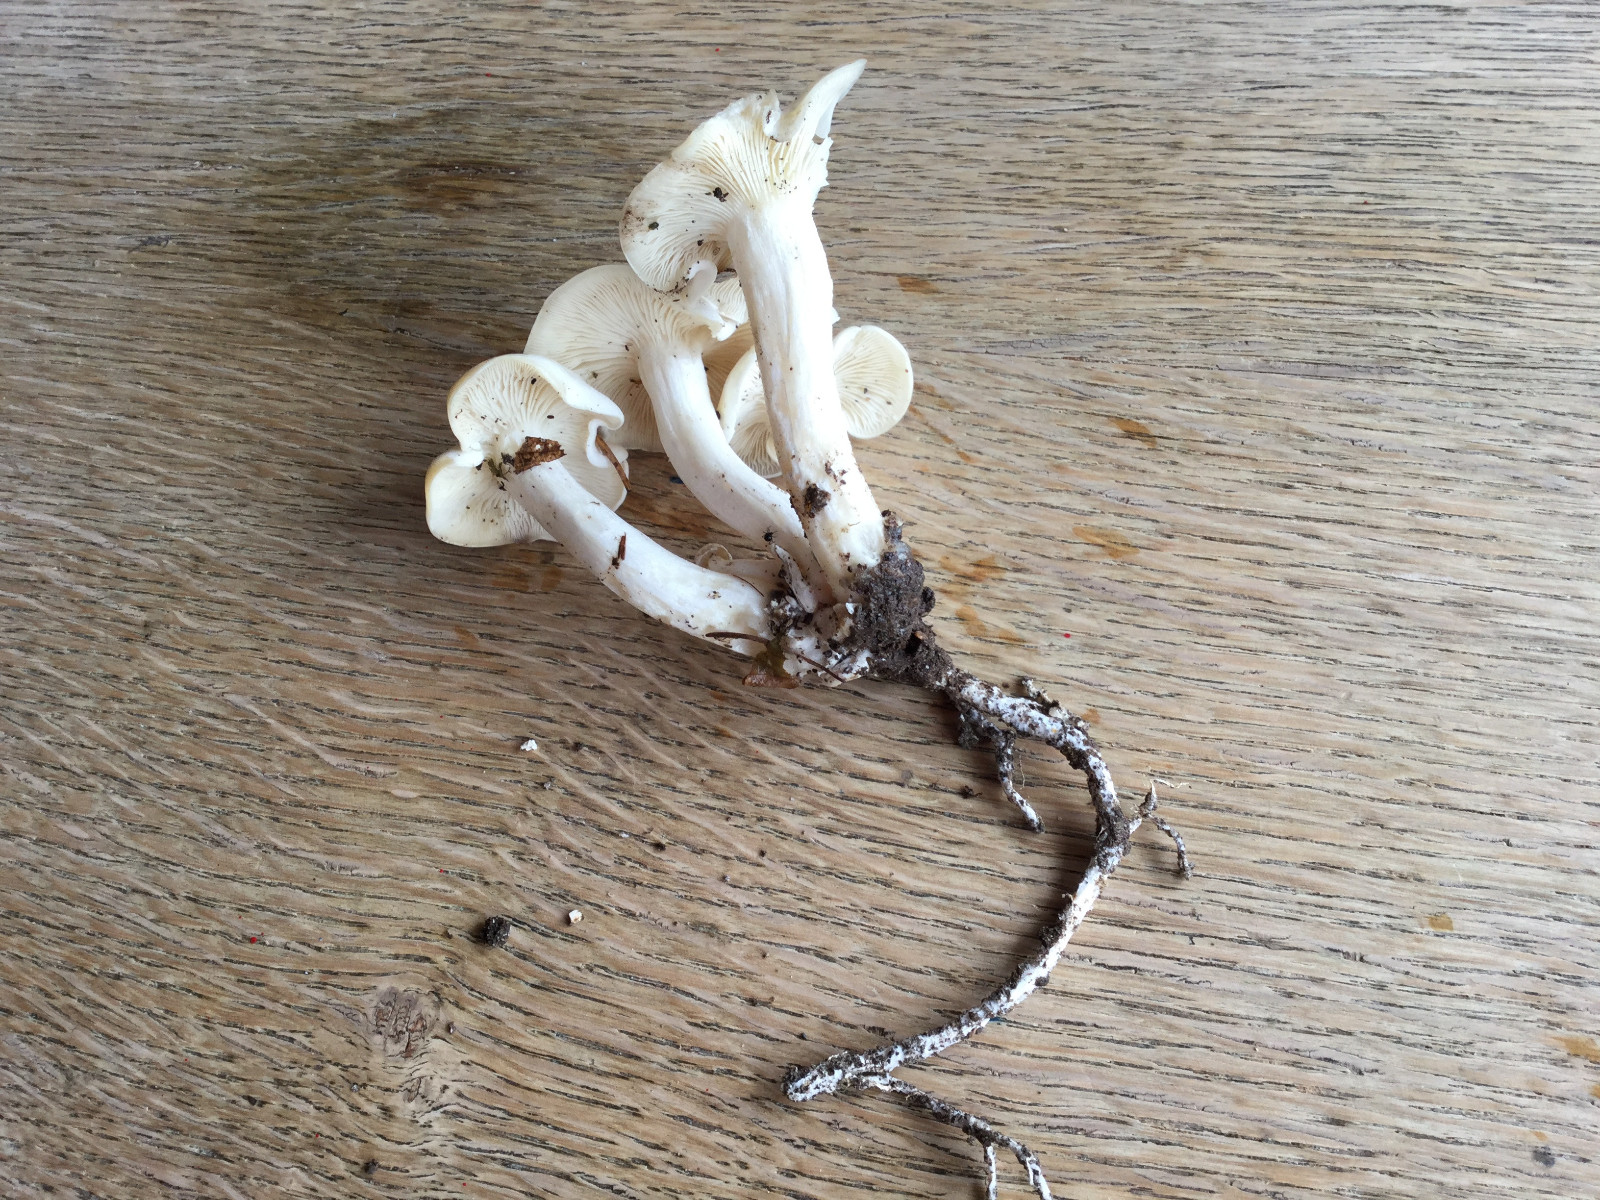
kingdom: Fungi
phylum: Basidiomycota
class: Agaricomycetes
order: Agaricales
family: Tricholomataceae
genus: Leucocybe
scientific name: Leucocybe connata
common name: knippe-tragthat
